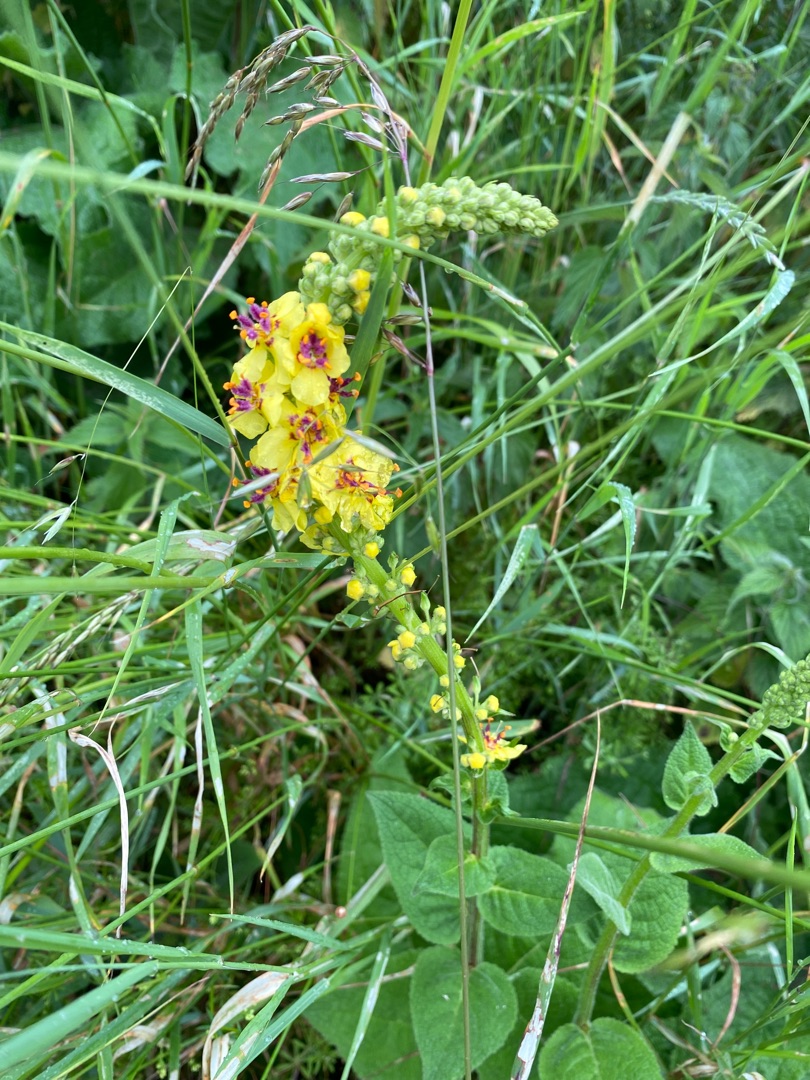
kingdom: Plantae
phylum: Tracheophyta
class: Magnoliopsida
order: Lamiales
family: Scrophulariaceae
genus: Verbascum
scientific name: Verbascum nigrum
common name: Mørk kongelys
